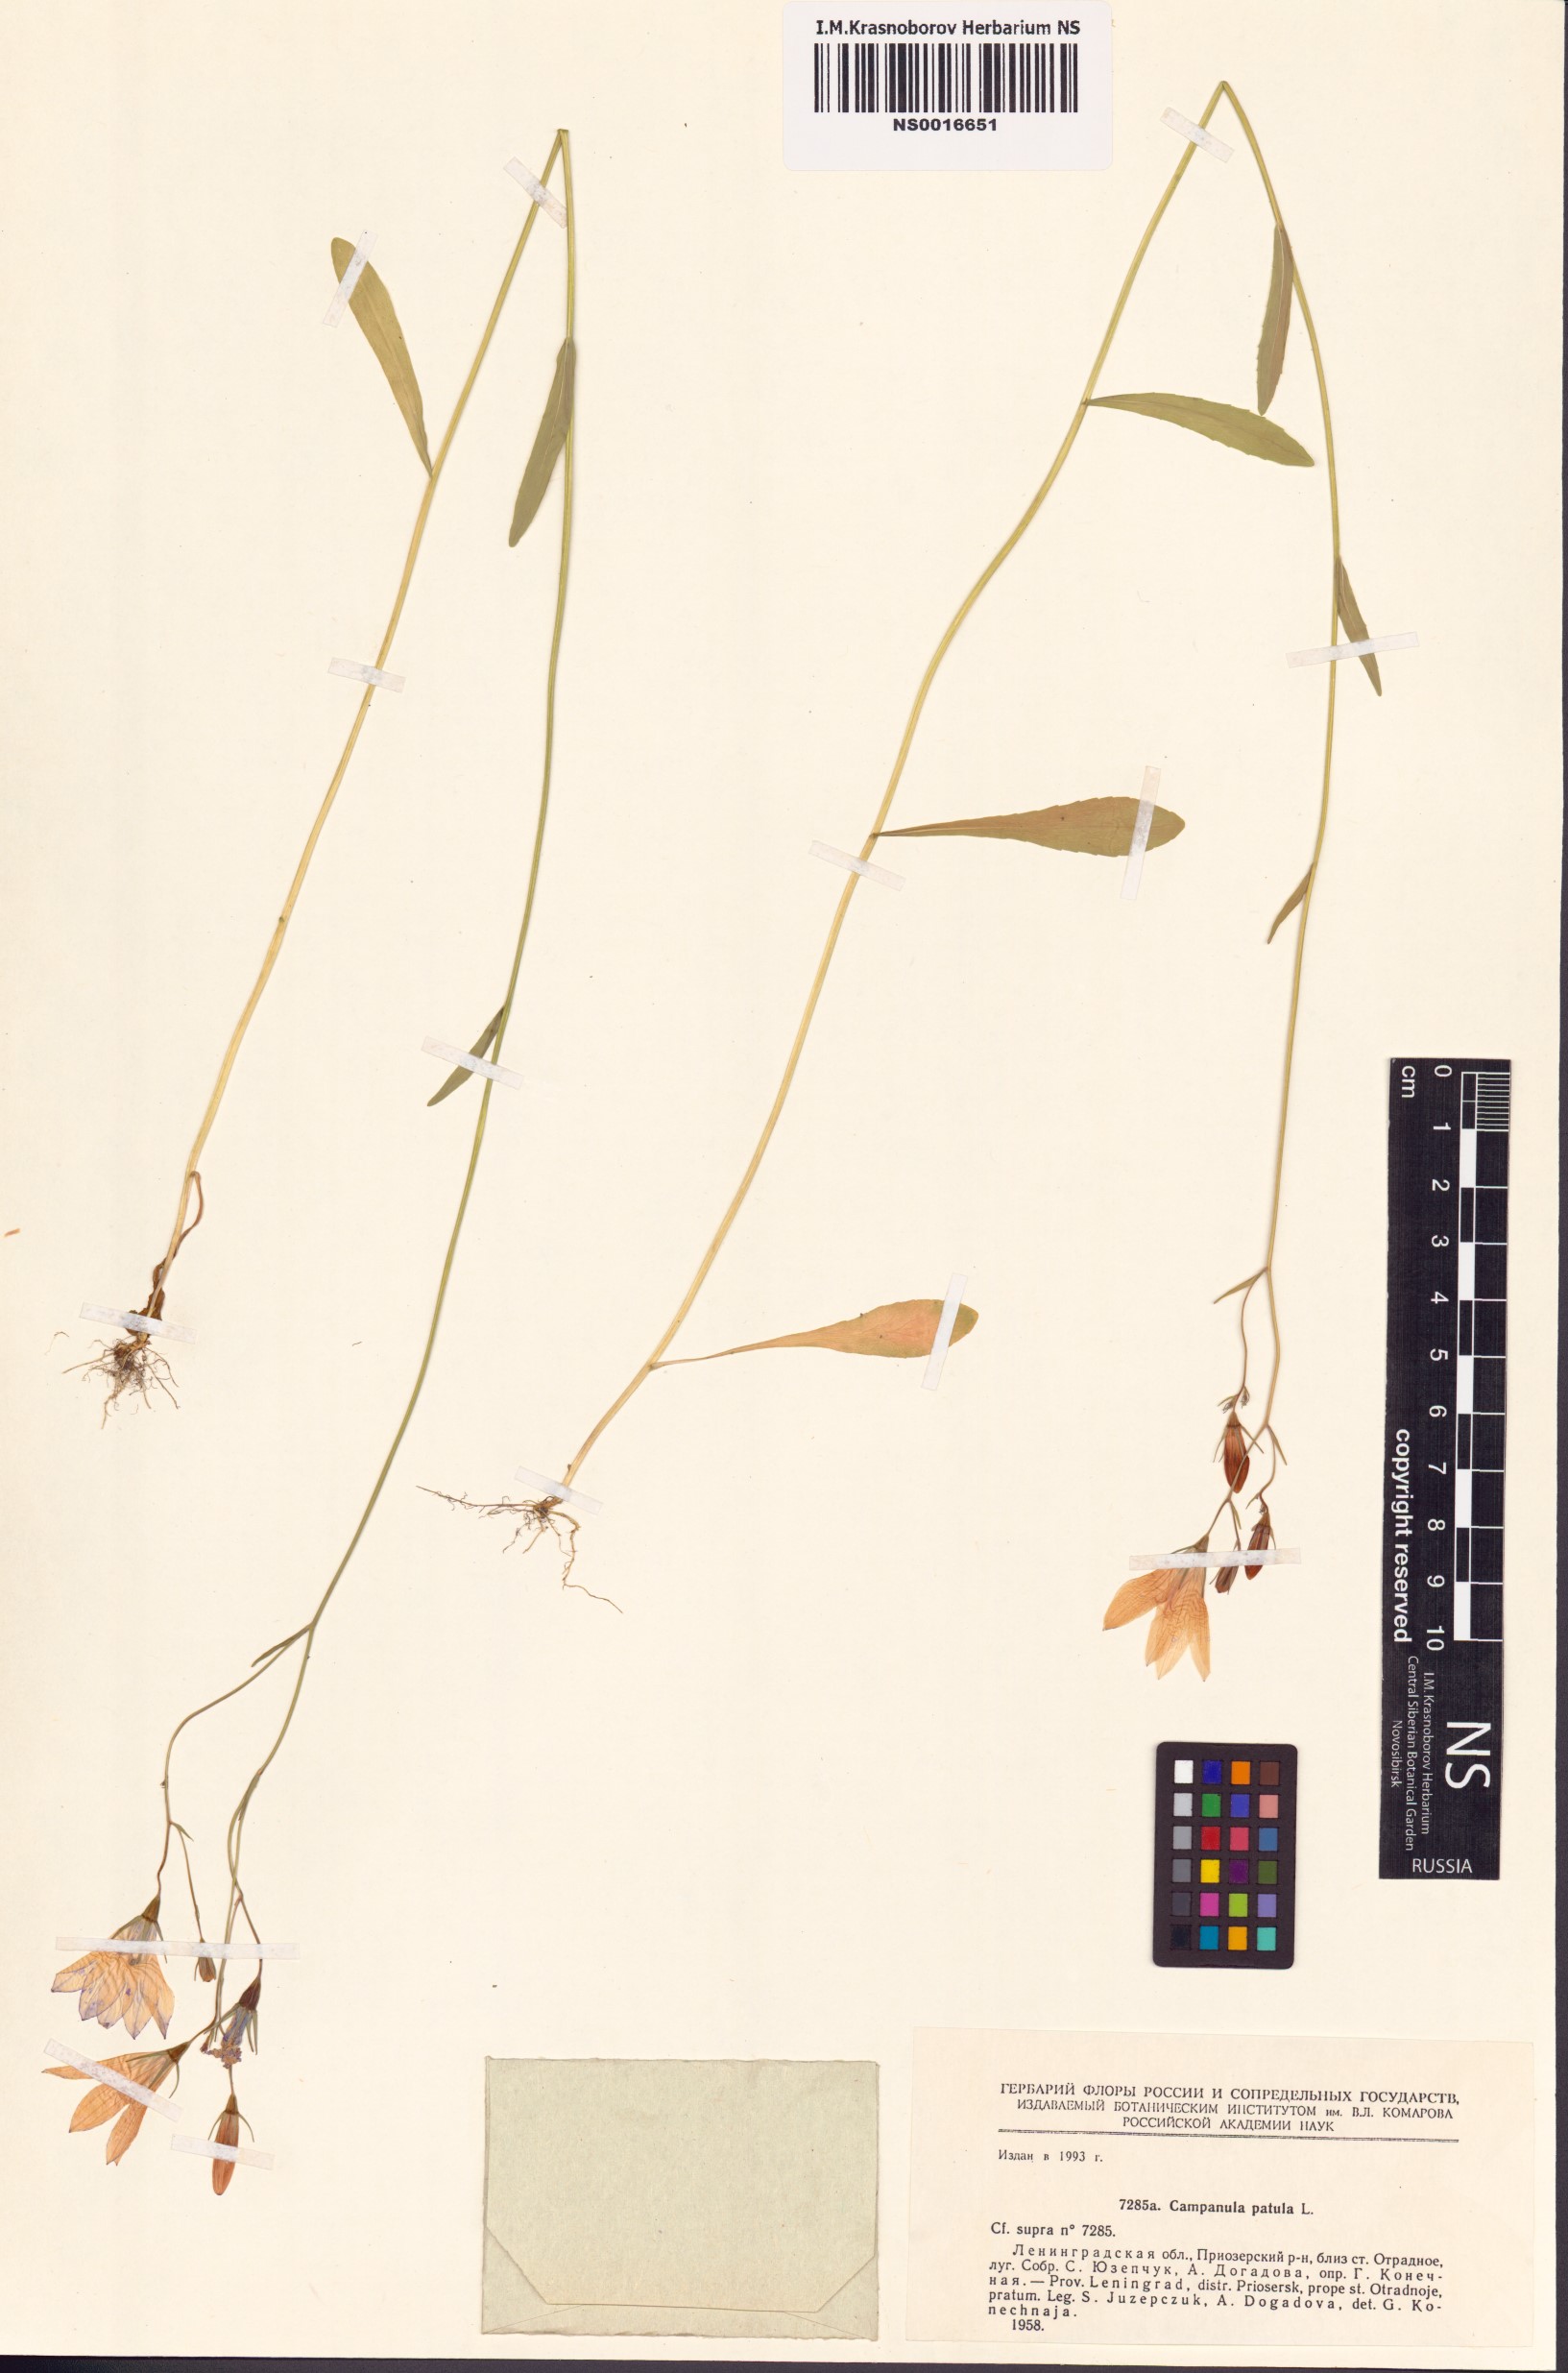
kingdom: Plantae
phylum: Tracheophyta
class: Magnoliopsida
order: Asterales
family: Campanulaceae
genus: Campanula
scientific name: Campanula patula
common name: Spreading bellflower
